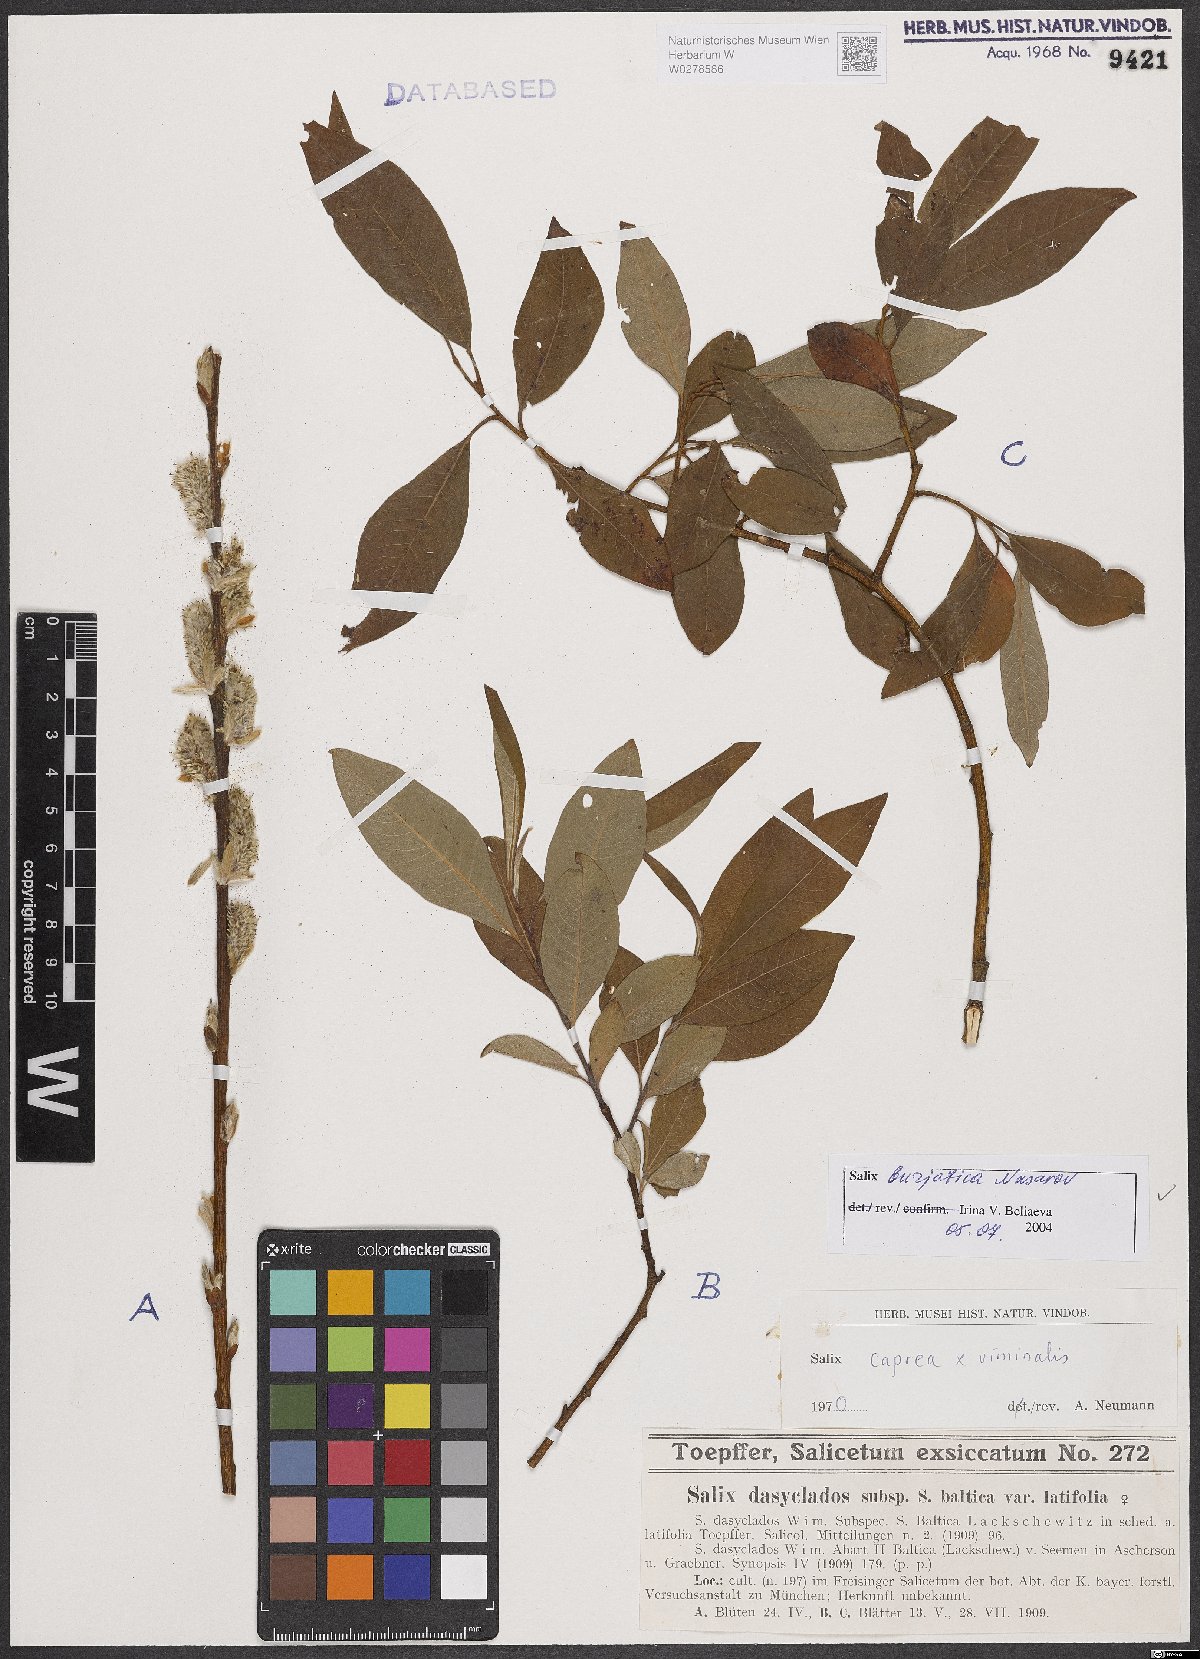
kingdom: Plantae
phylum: Tracheophyta
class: Magnoliopsida
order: Malpighiales
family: Salicaceae
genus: Salix
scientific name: Salix gmelinii
